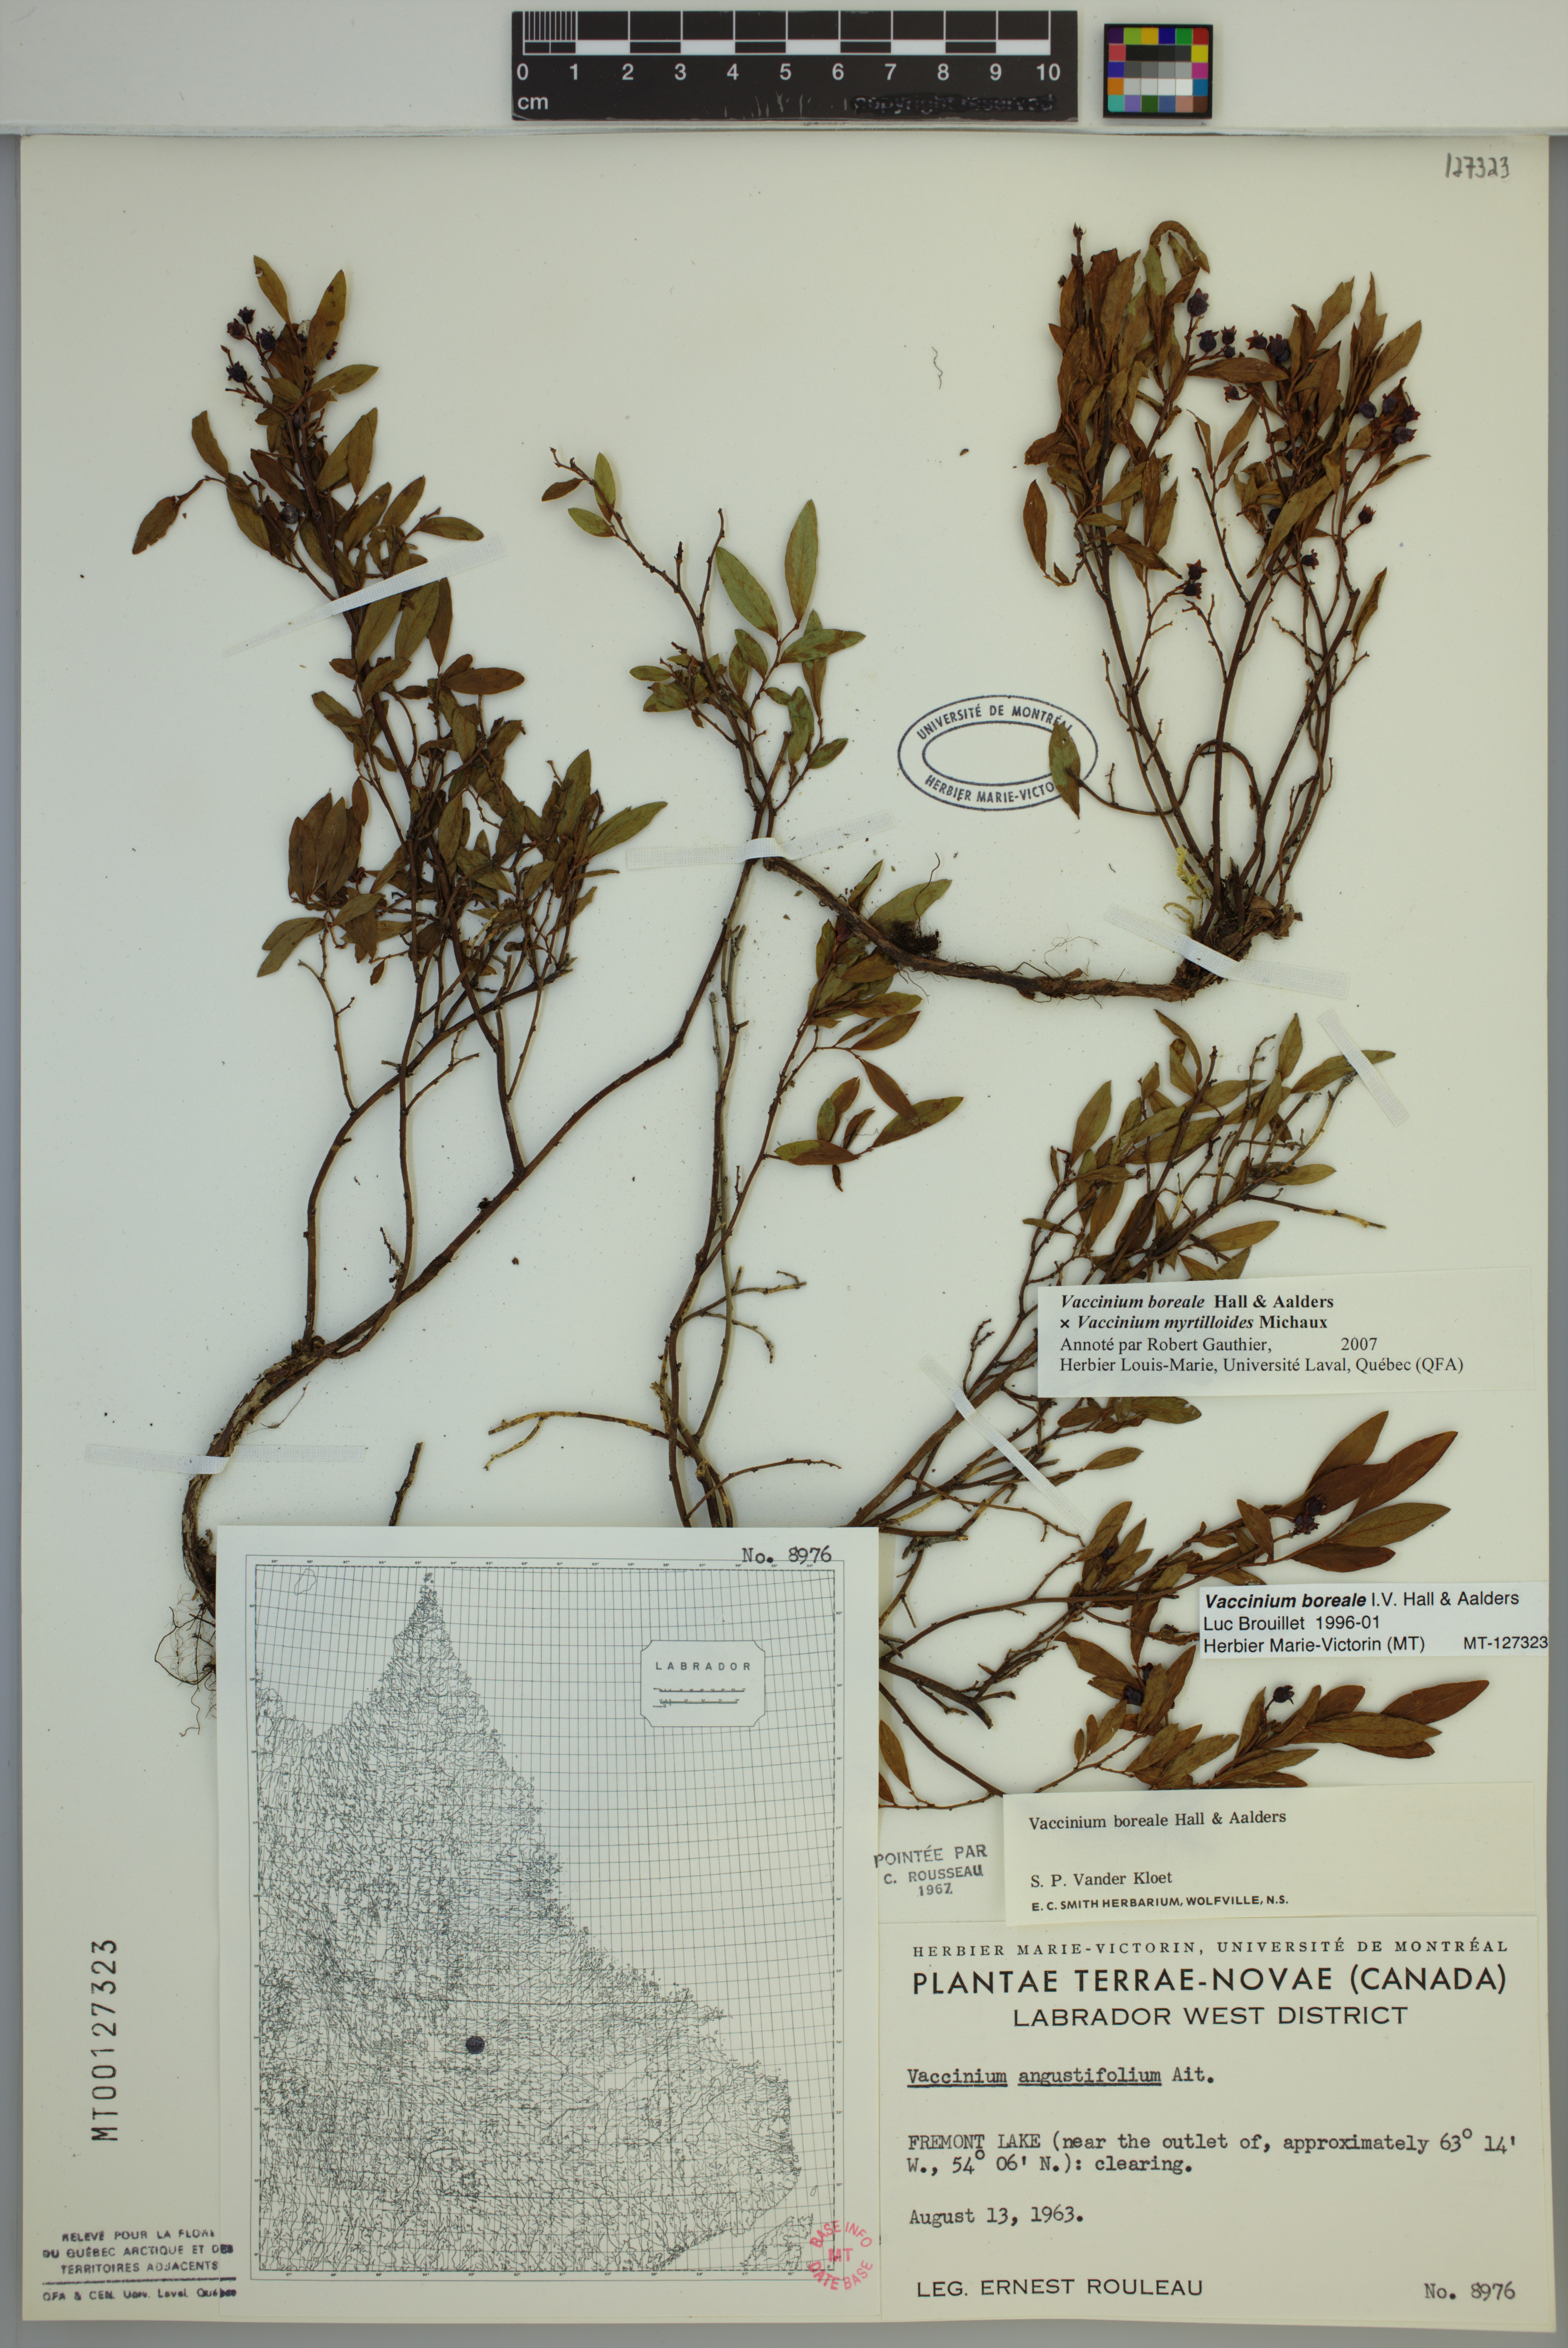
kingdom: Plantae
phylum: Tracheophyta
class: Magnoliopsida
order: Ericales
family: Ericaceae
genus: Vaccinium
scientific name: Vaccinium boreale
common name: Northern blueberry
